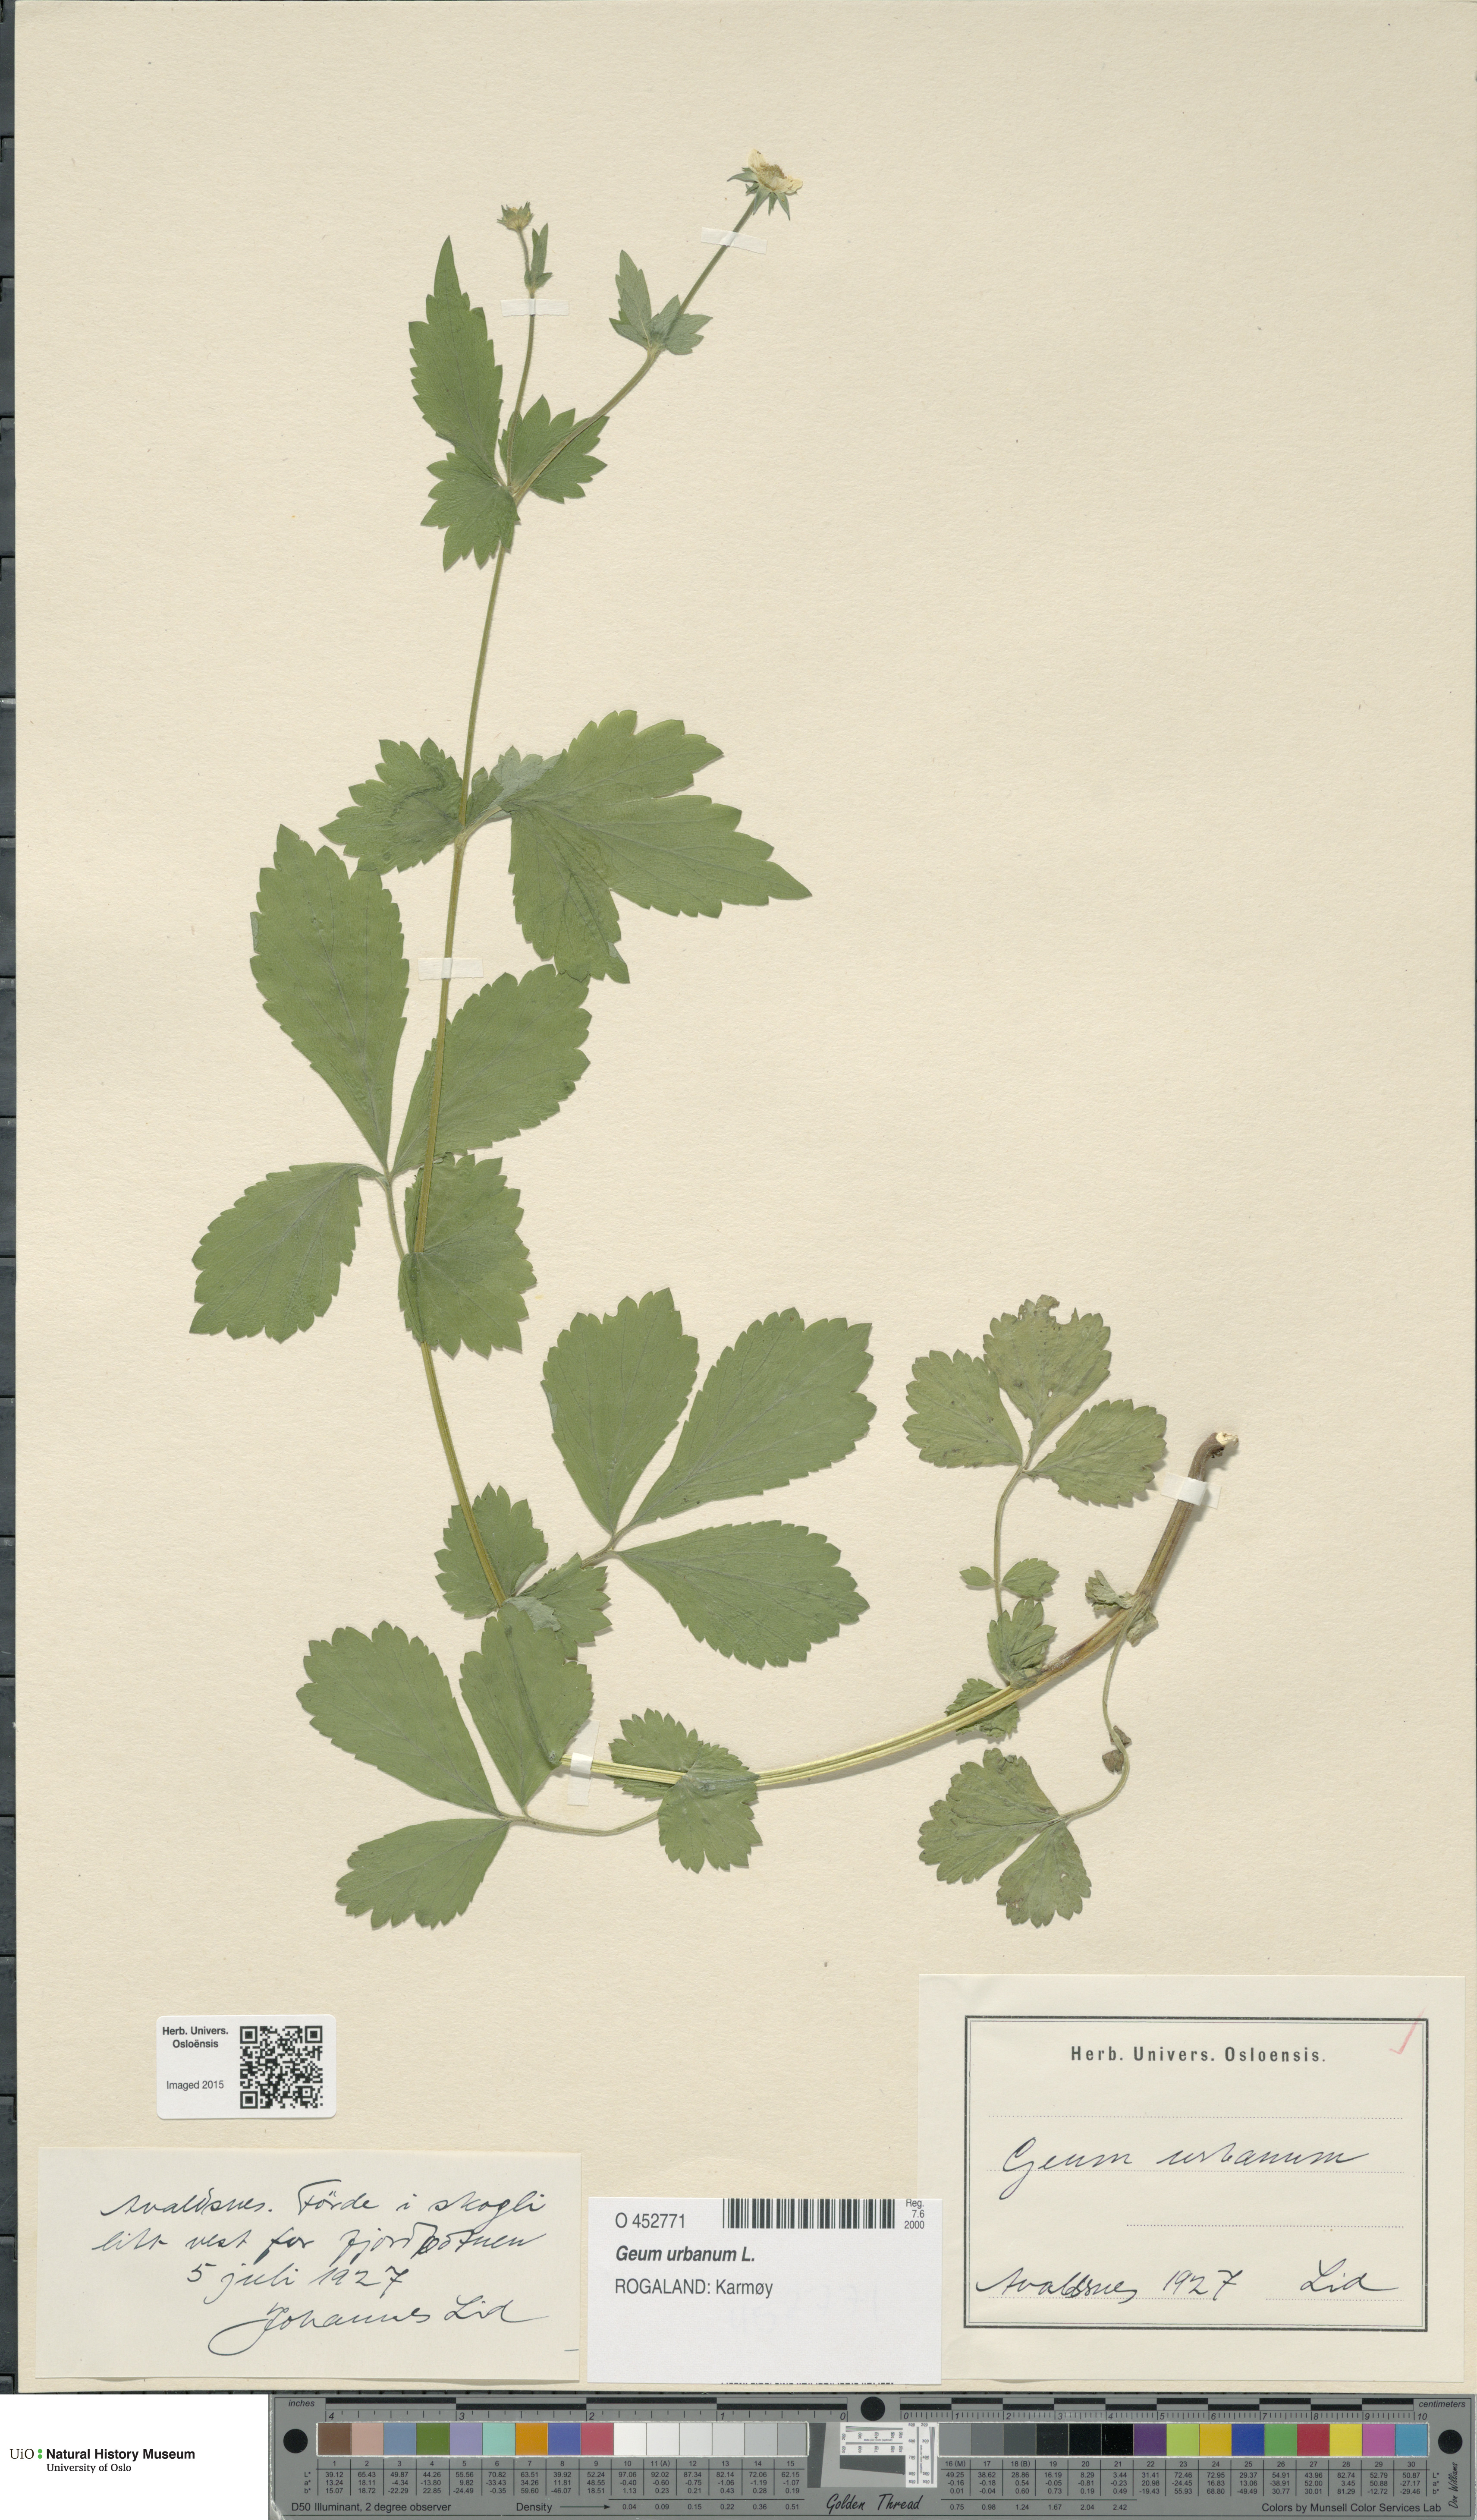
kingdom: Plantae
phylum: Tracheophyta
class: Magnoliopsida
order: Rosales
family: Rosaceae
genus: Geum
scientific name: Geum urbanum
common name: Wood avens
